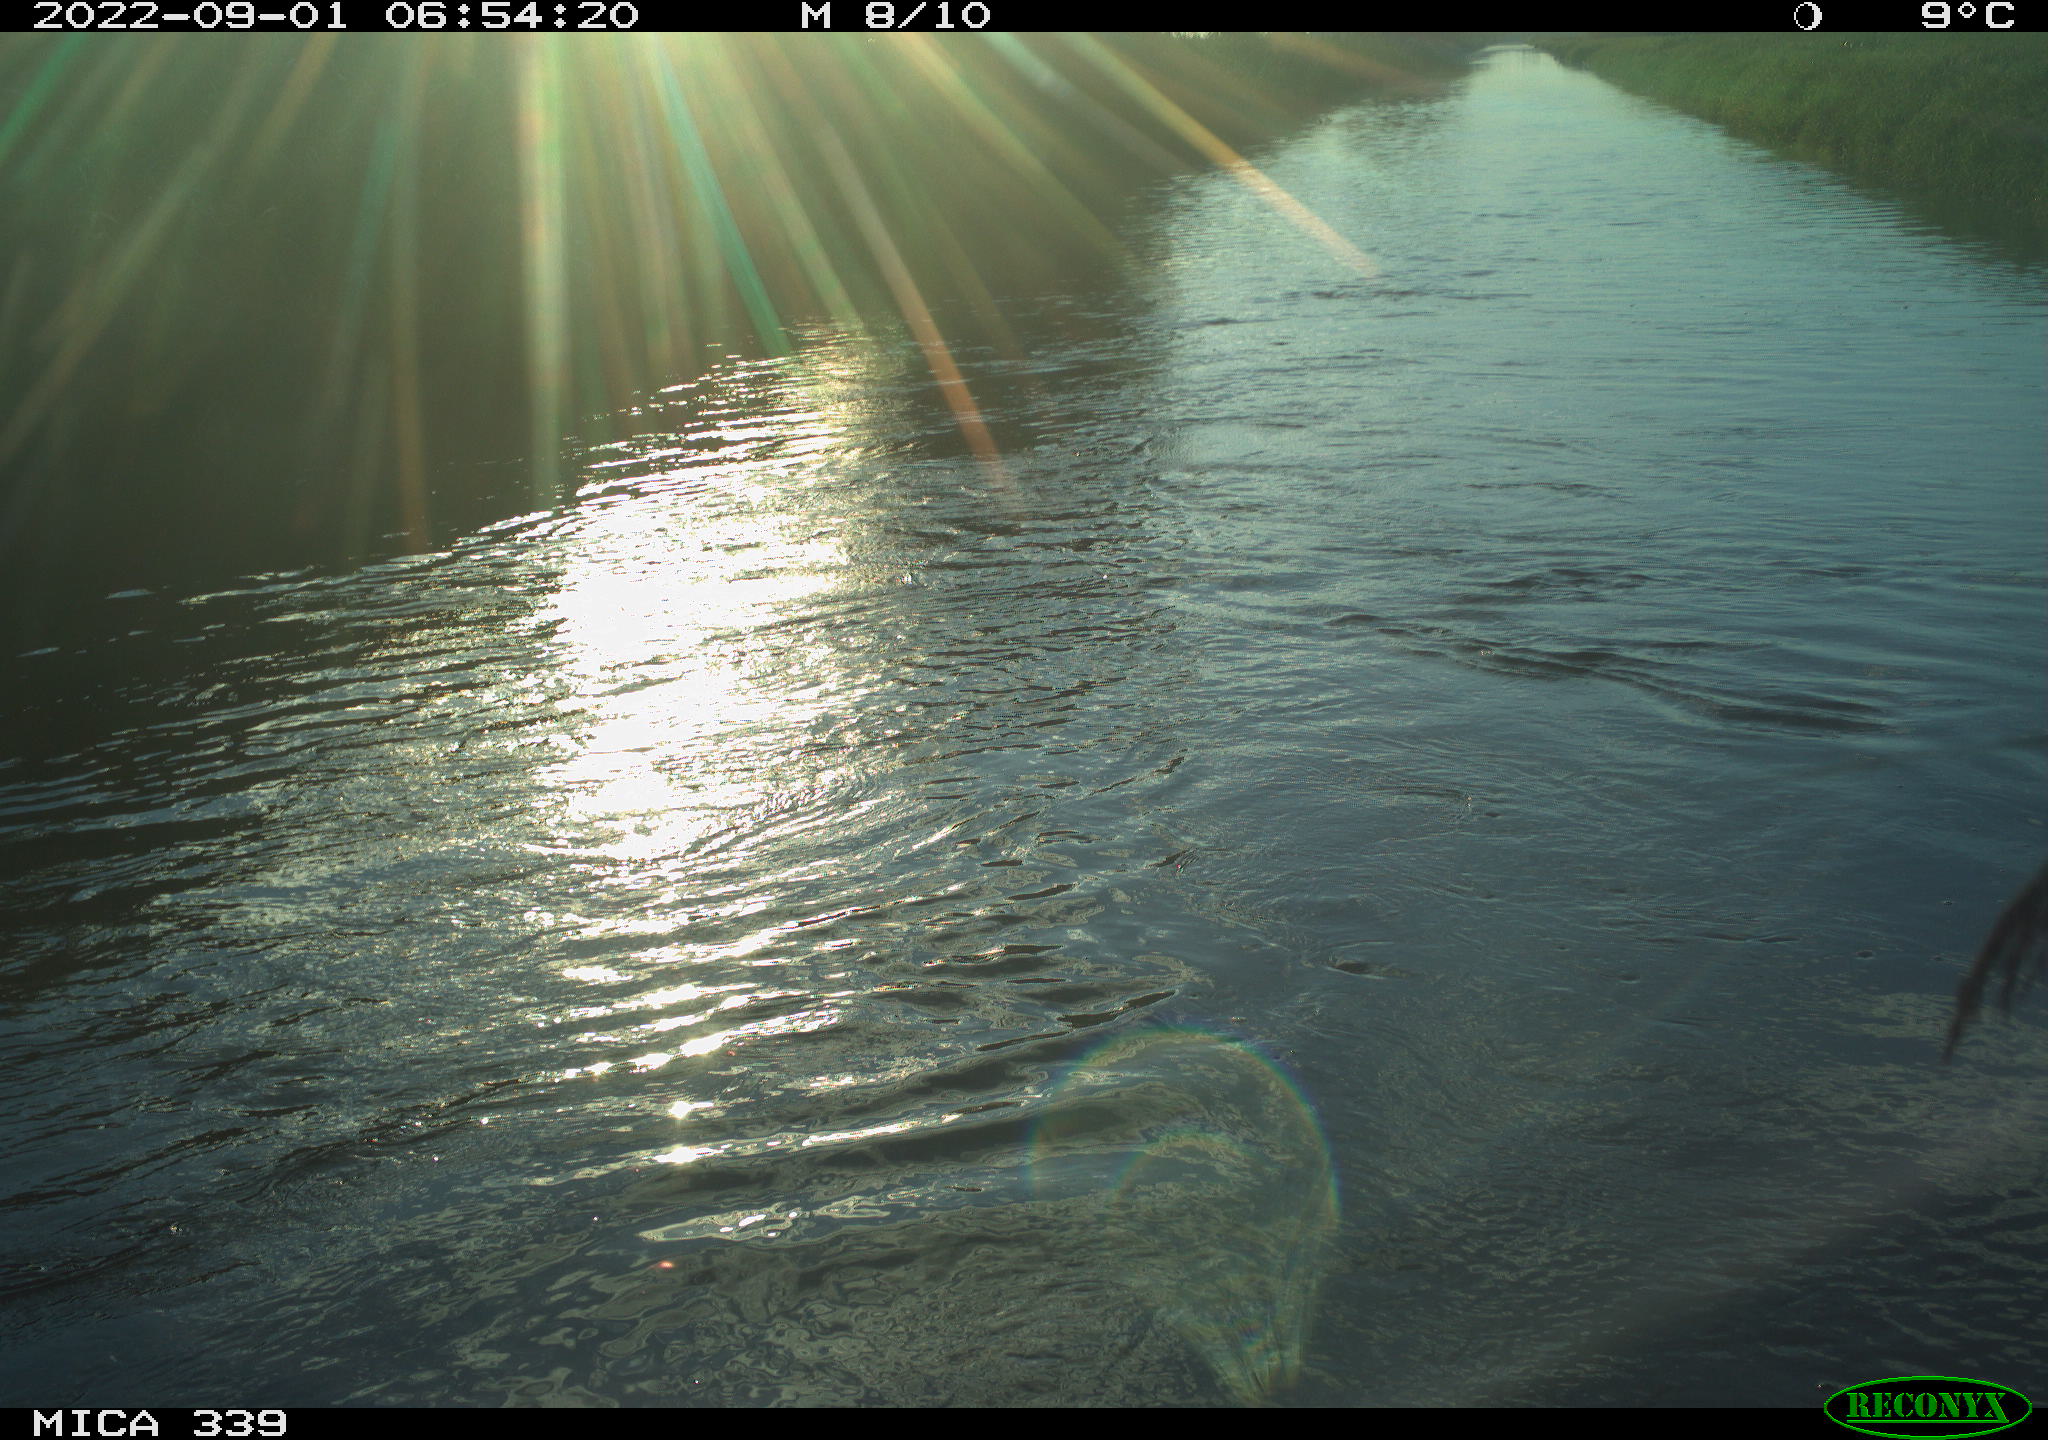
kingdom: Animalia
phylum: Chordata
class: Aves
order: Anseriformes
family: Anatidae
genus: Anas
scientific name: Anas platyrhynchos
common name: Mallard
